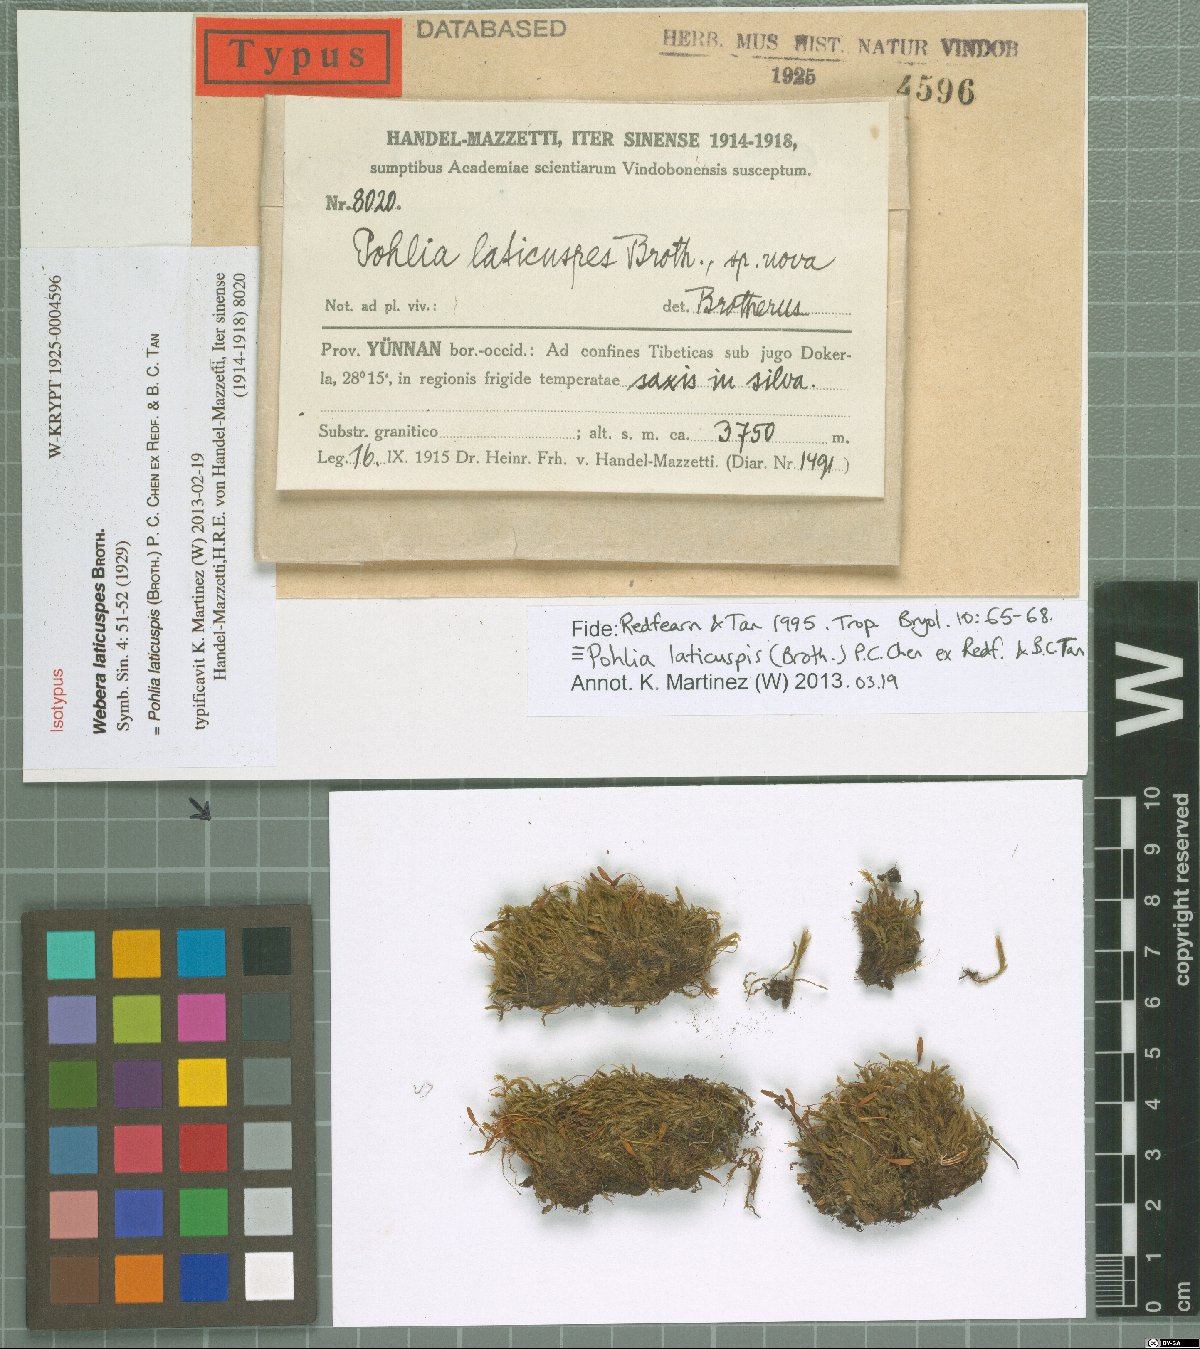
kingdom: Plantae
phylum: Bryophyta
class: Bryopsida
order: Bryales
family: Mniaceae
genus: Pohlia
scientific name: Pohlia oerstediana
